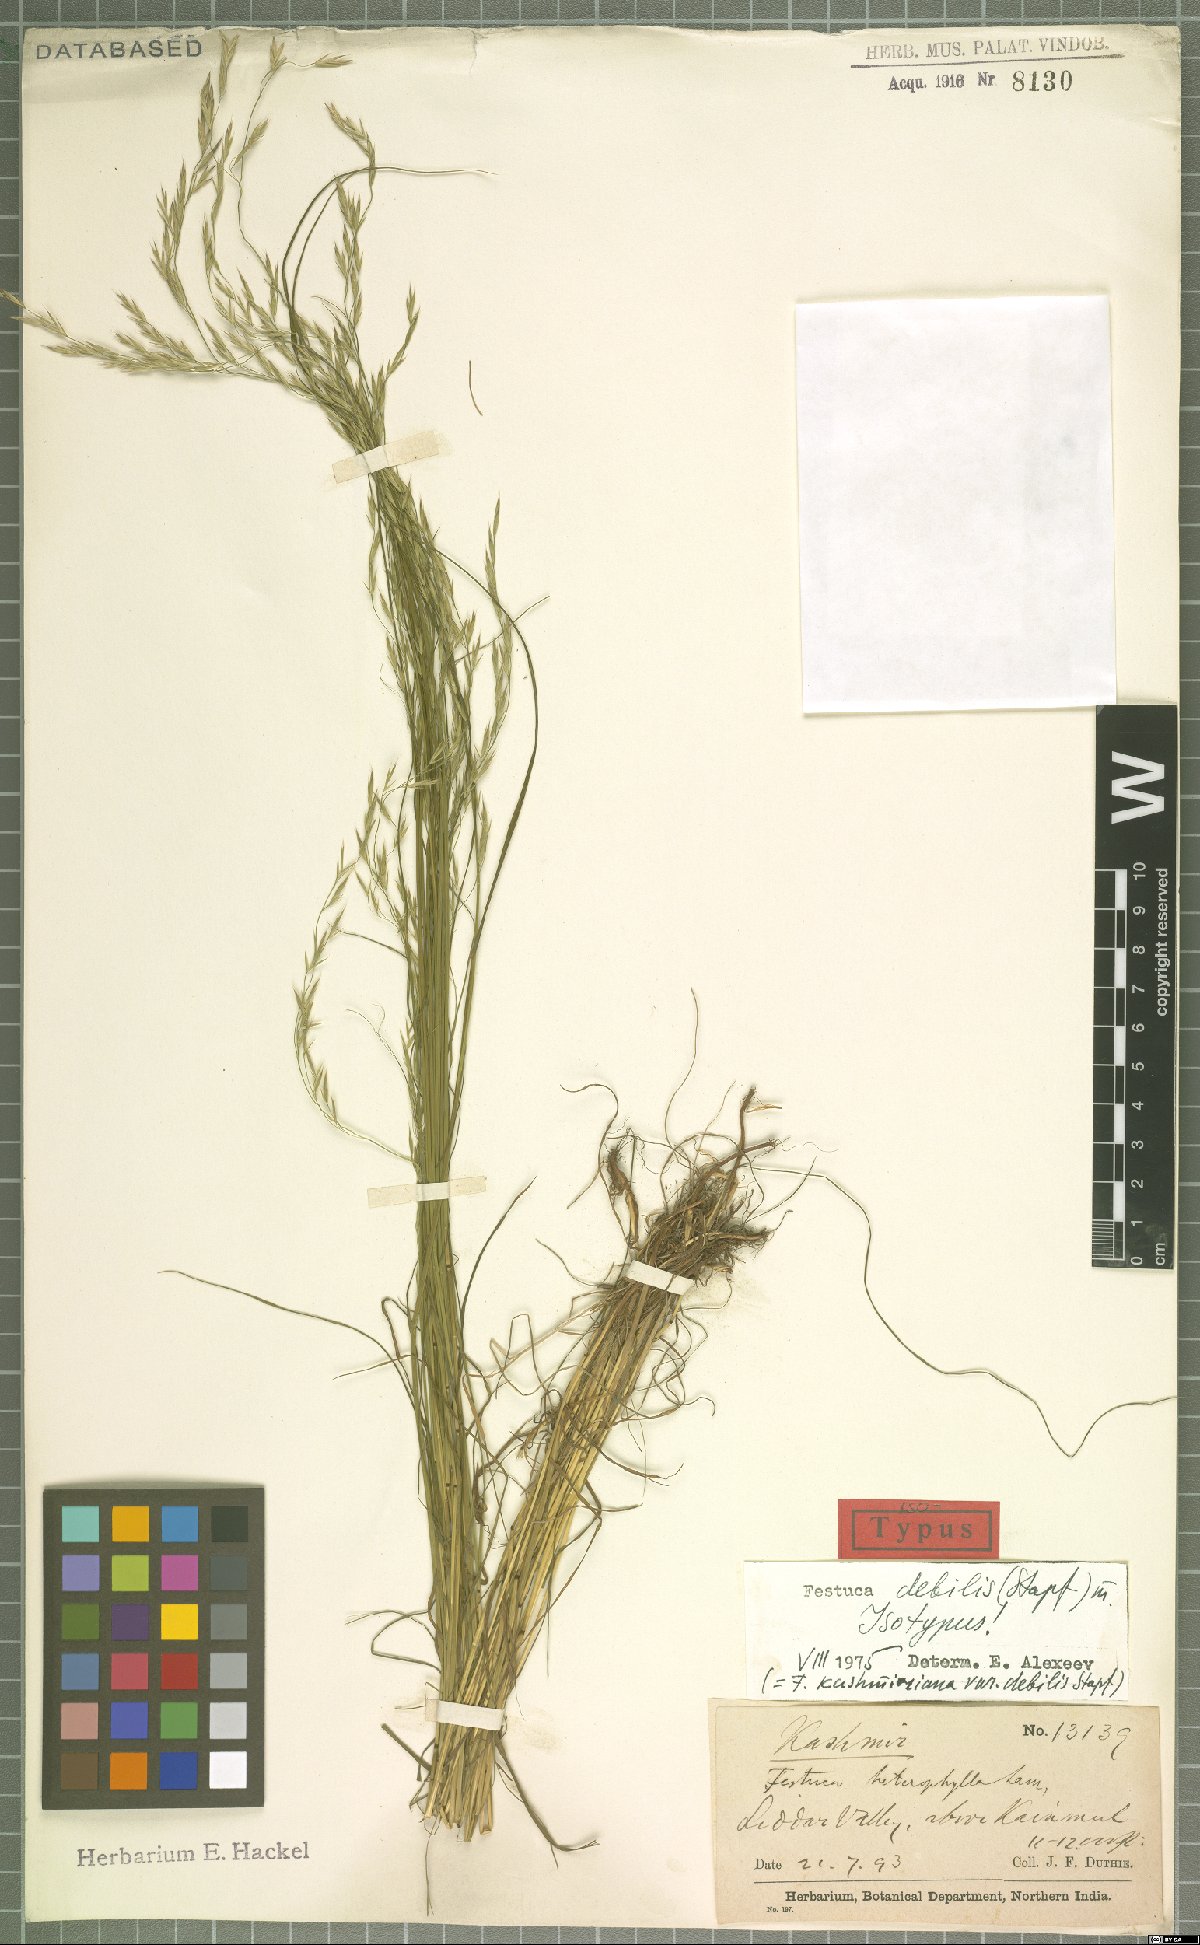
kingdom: Plantae
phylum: Tracheophyta
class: Liliopsida
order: Poales
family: Poaceae
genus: Festuca
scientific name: Festuca debilis
